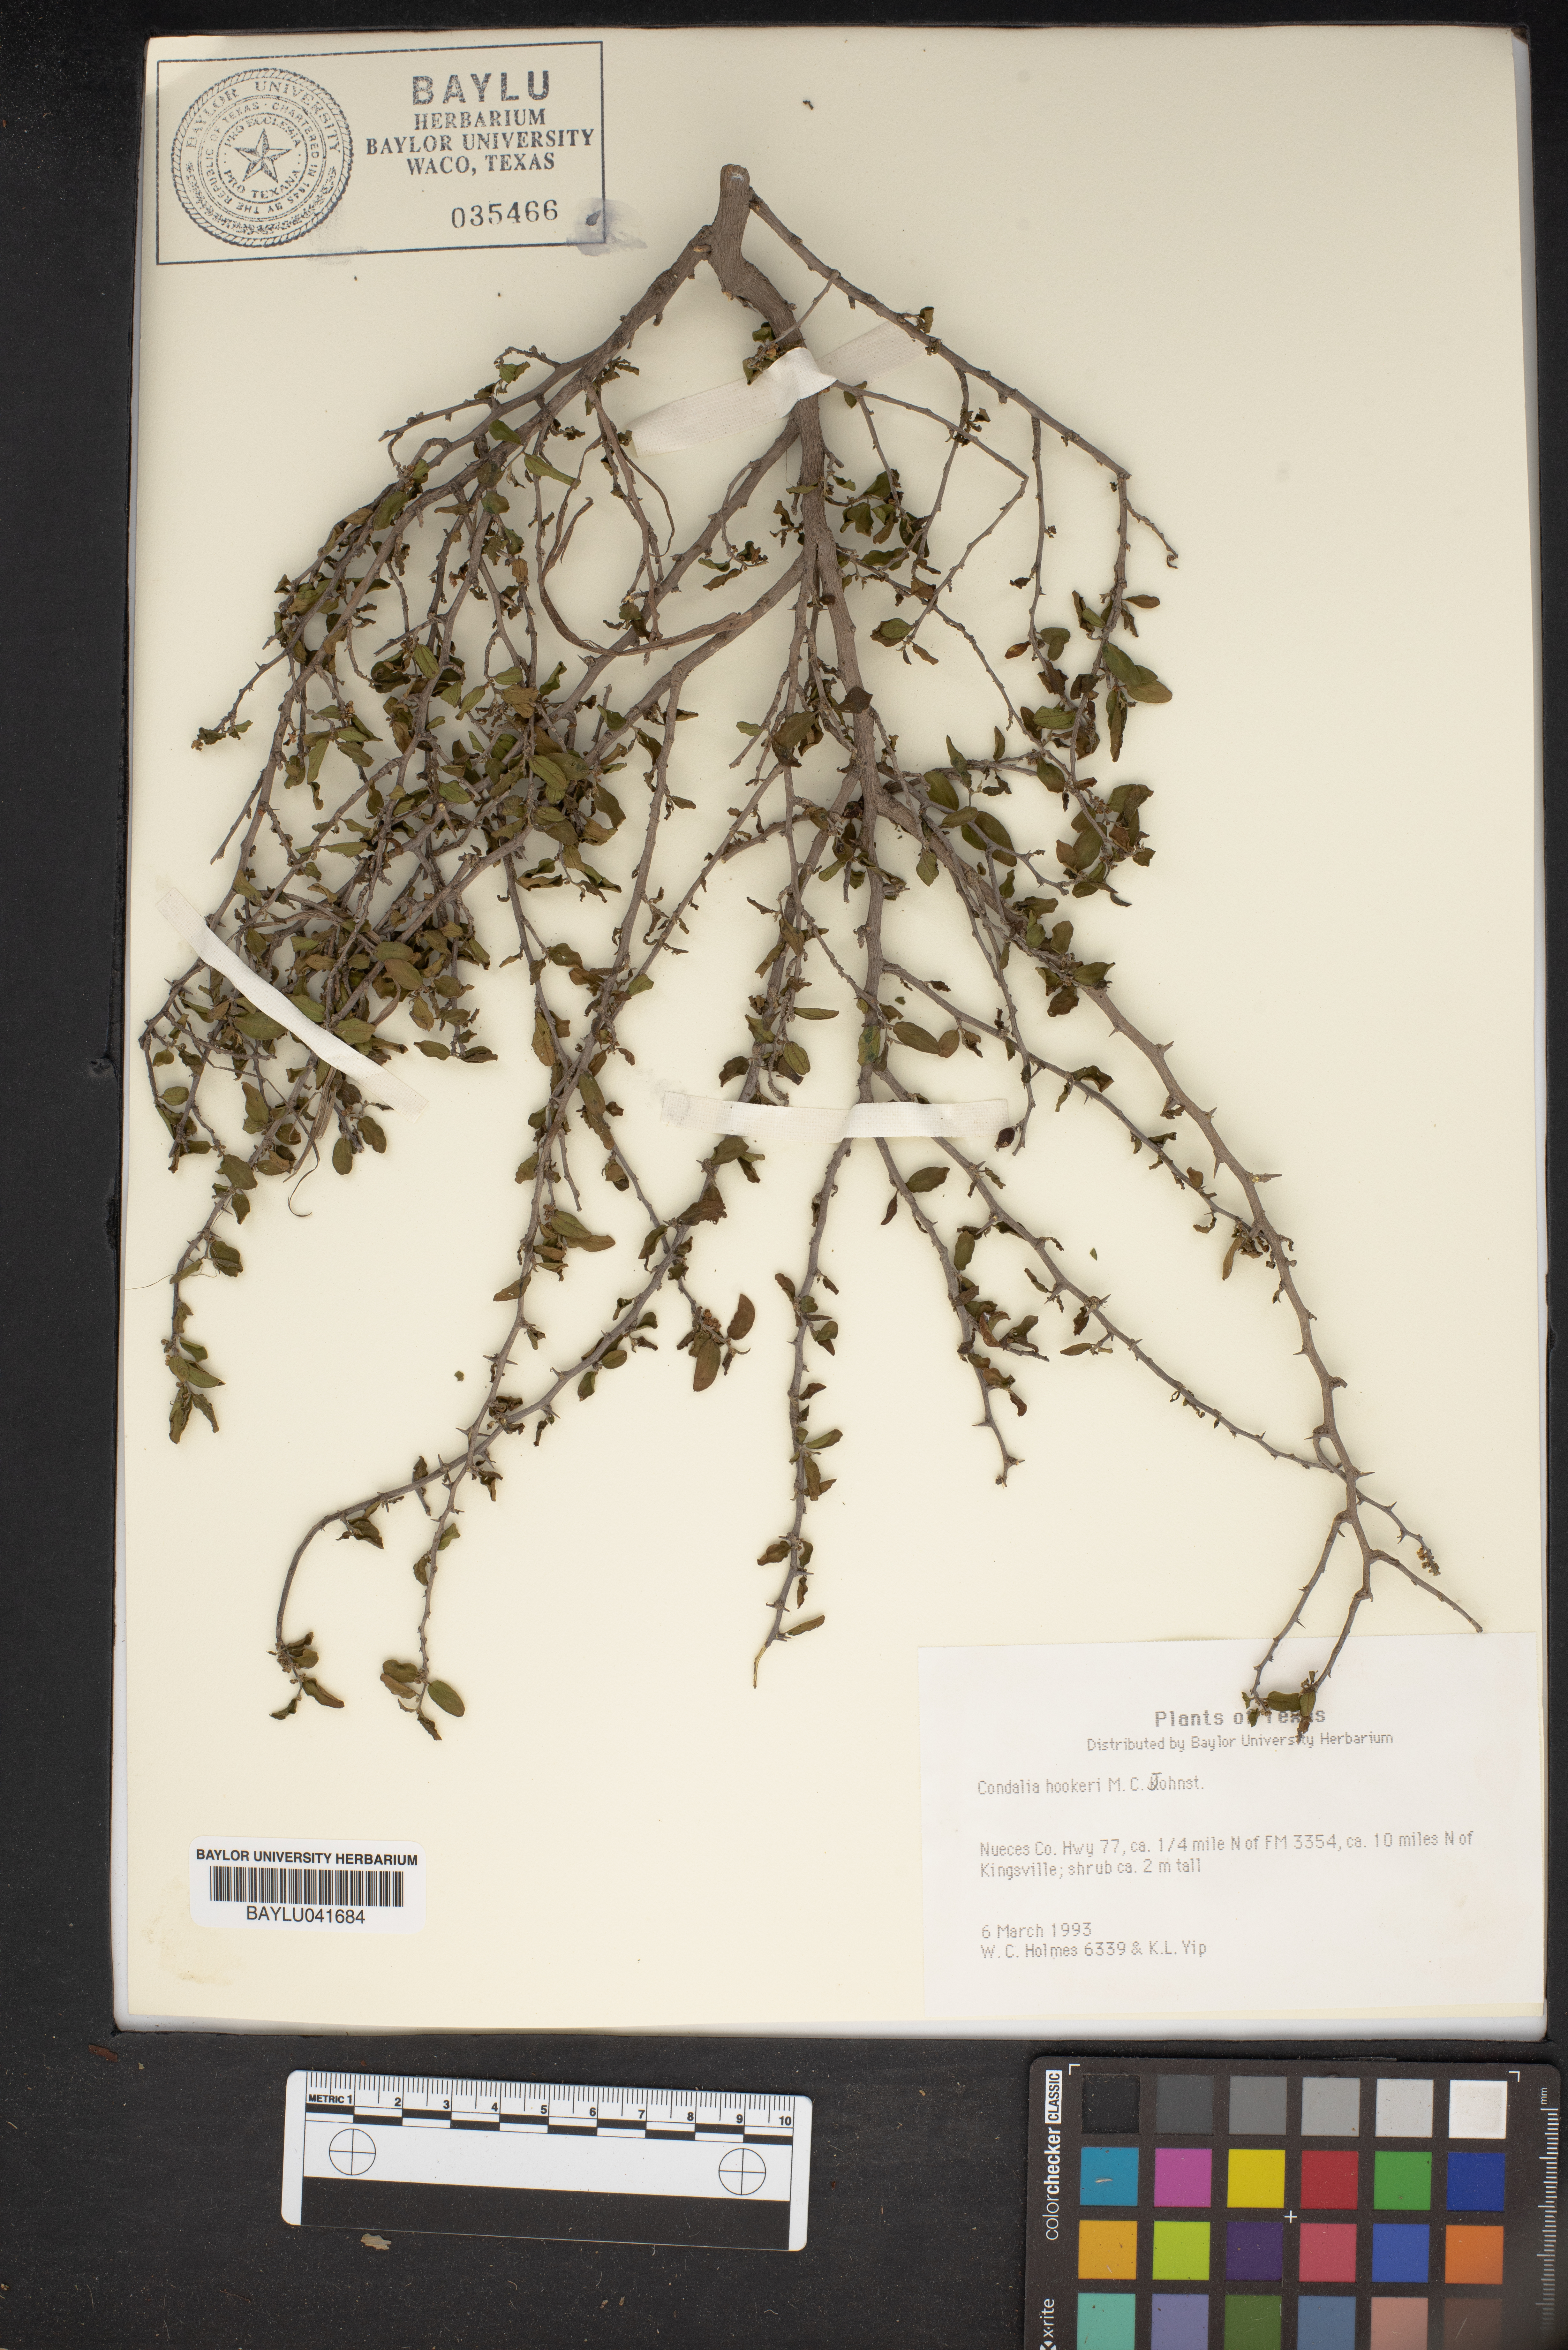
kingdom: Plantae
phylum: Tracheophyta
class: Magnoliopsida
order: Rosales
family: Rhamnaceae
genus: Condalia
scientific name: Condalia hookeri
